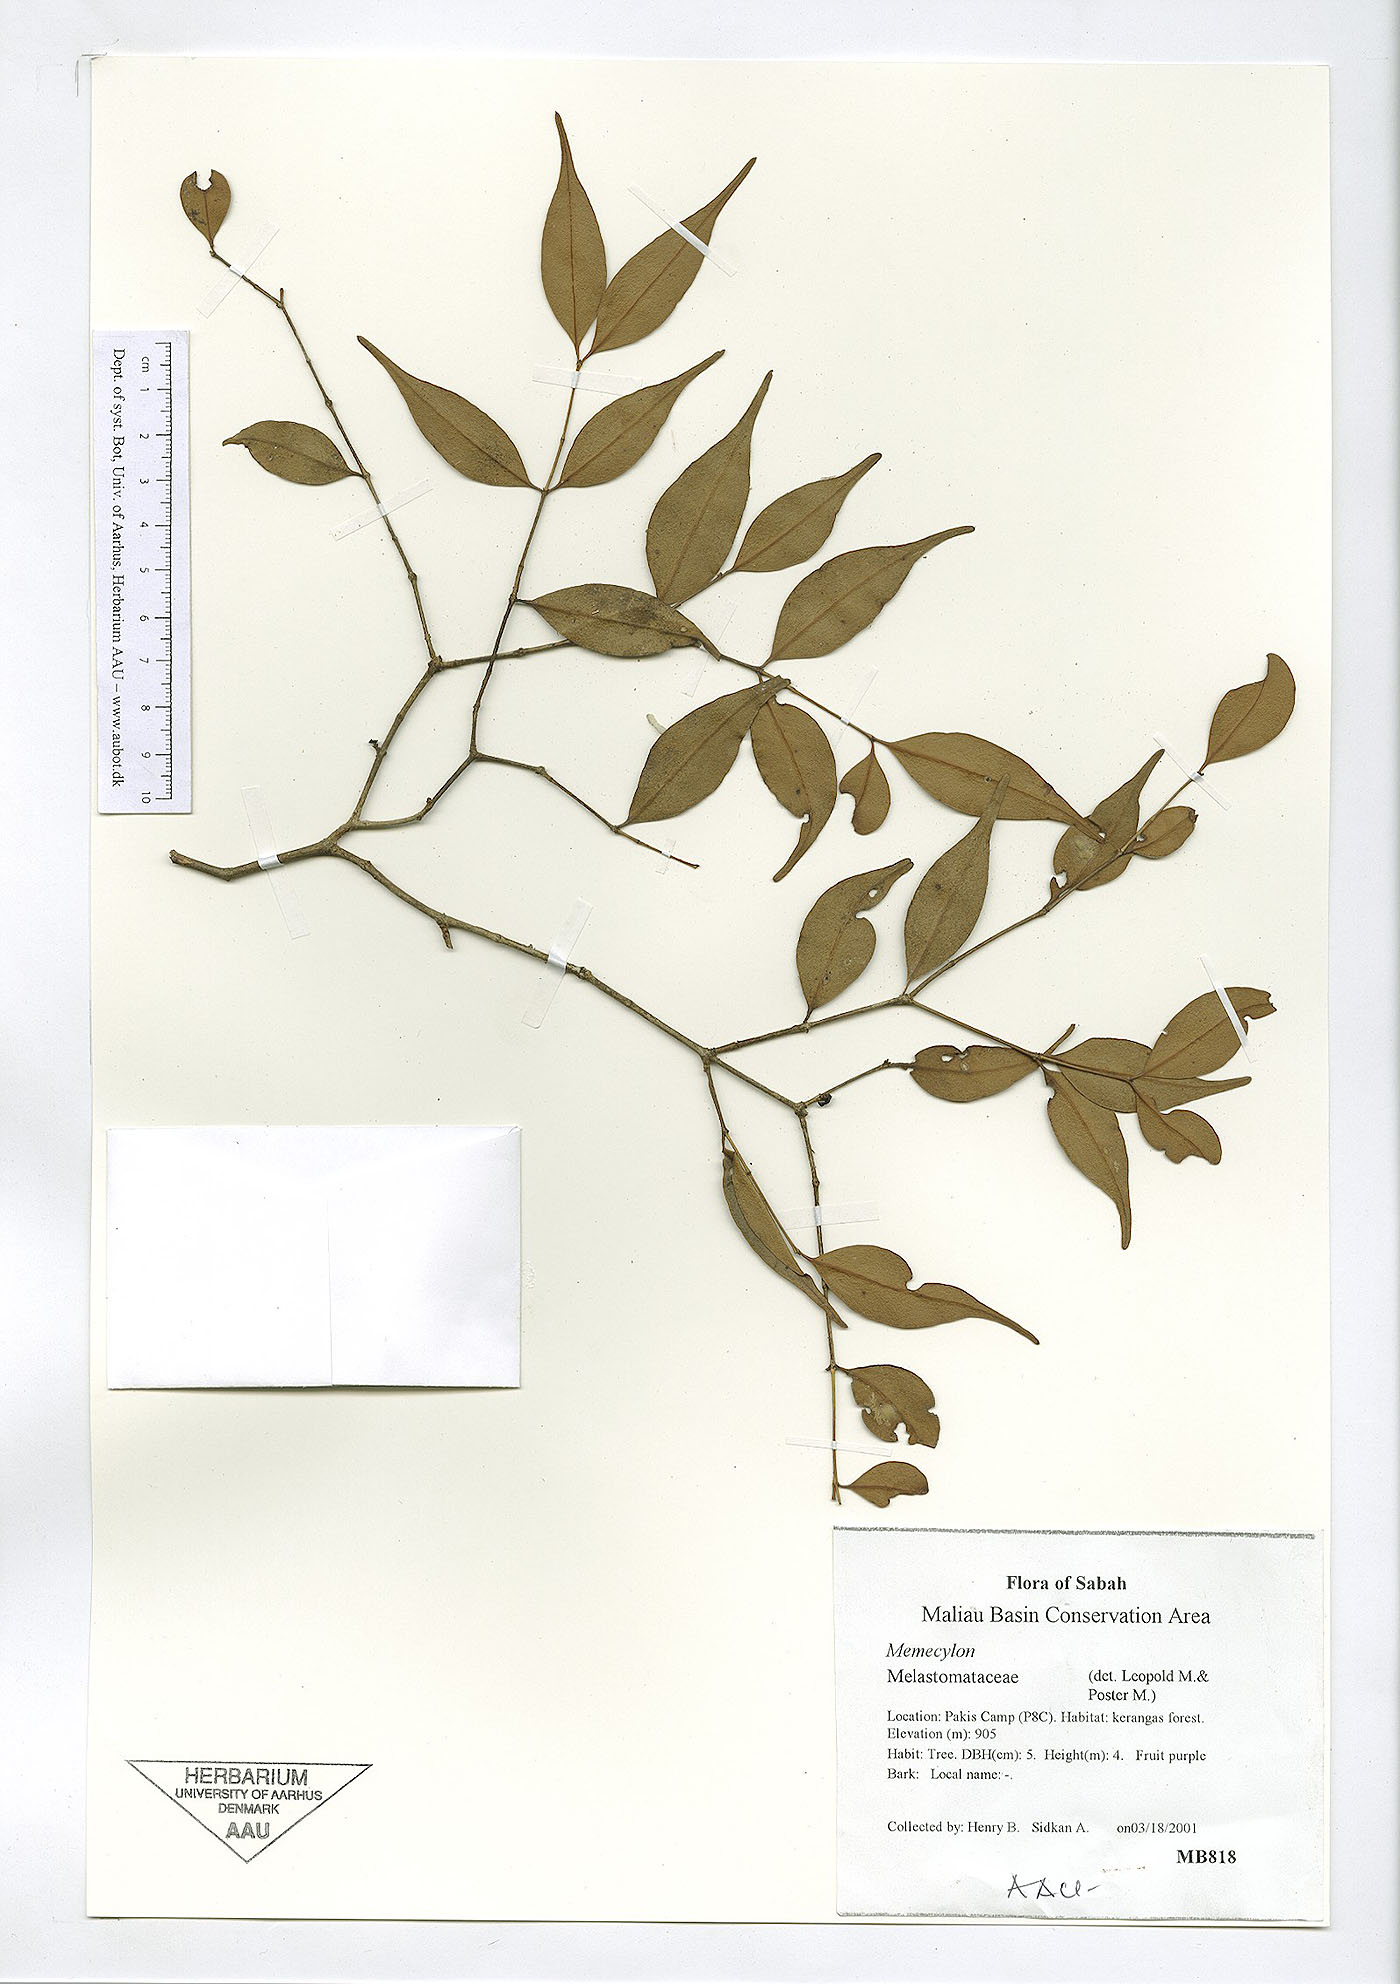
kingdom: Plantae
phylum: Tracheophyta
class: Magnoliopsida
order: Myrtales
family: Melastomataceae
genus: Memecylon
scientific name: Memecylon
